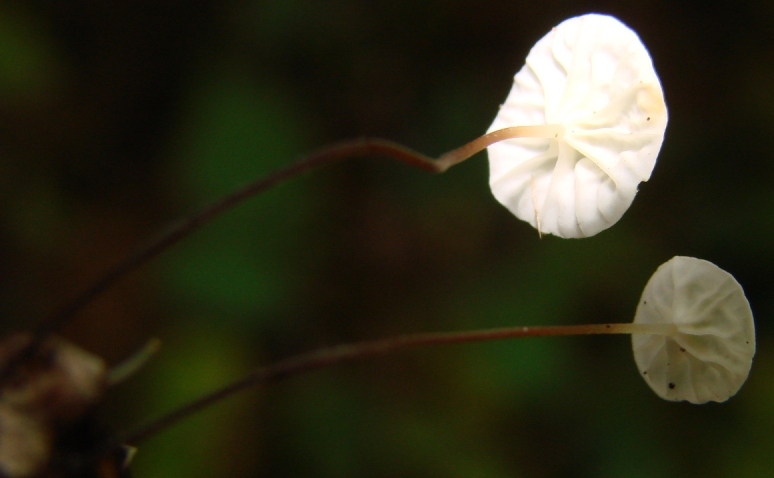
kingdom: Fungi
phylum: Basidiomycota
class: Agaricomycetes
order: Agaricales
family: Marasmiaceae
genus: Marasmius
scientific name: Marasmius epiphyllus
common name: blad-bruskhat
